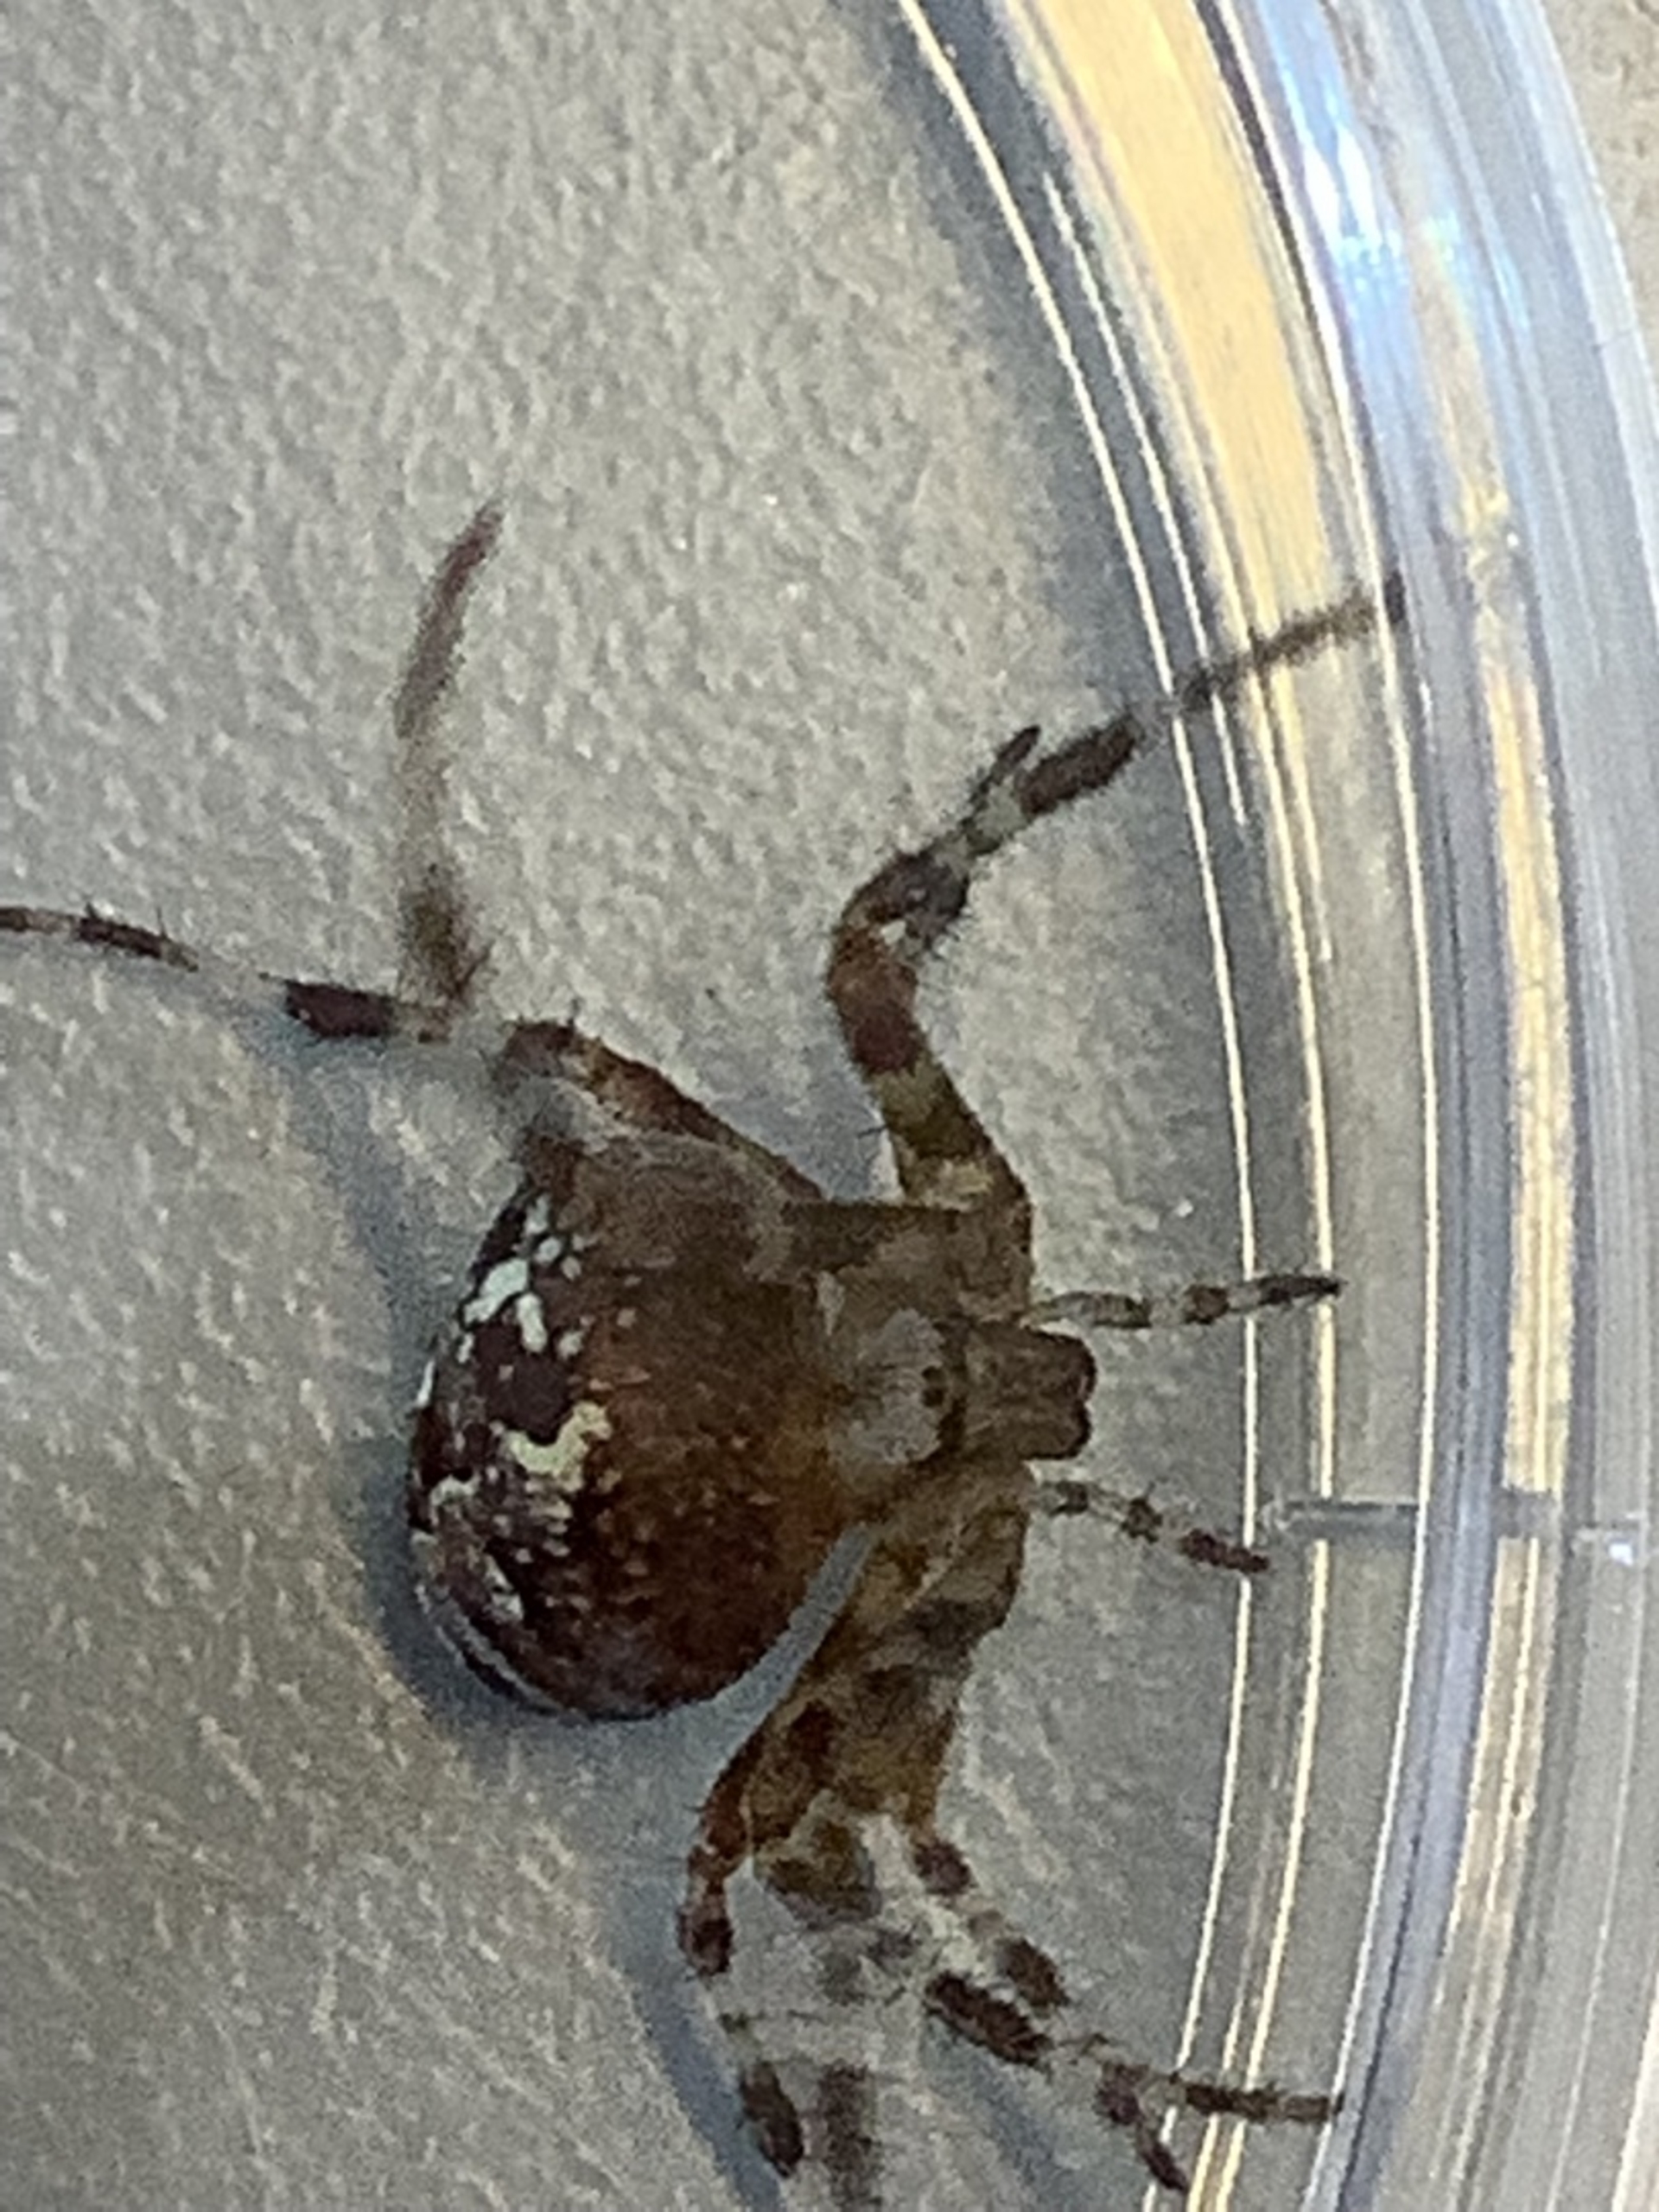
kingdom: Animalia
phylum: Arthropoda
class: Arachnida
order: Araneae
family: Araneidae
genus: Araneus
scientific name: Araneus diadematus
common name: Korsedderkop
